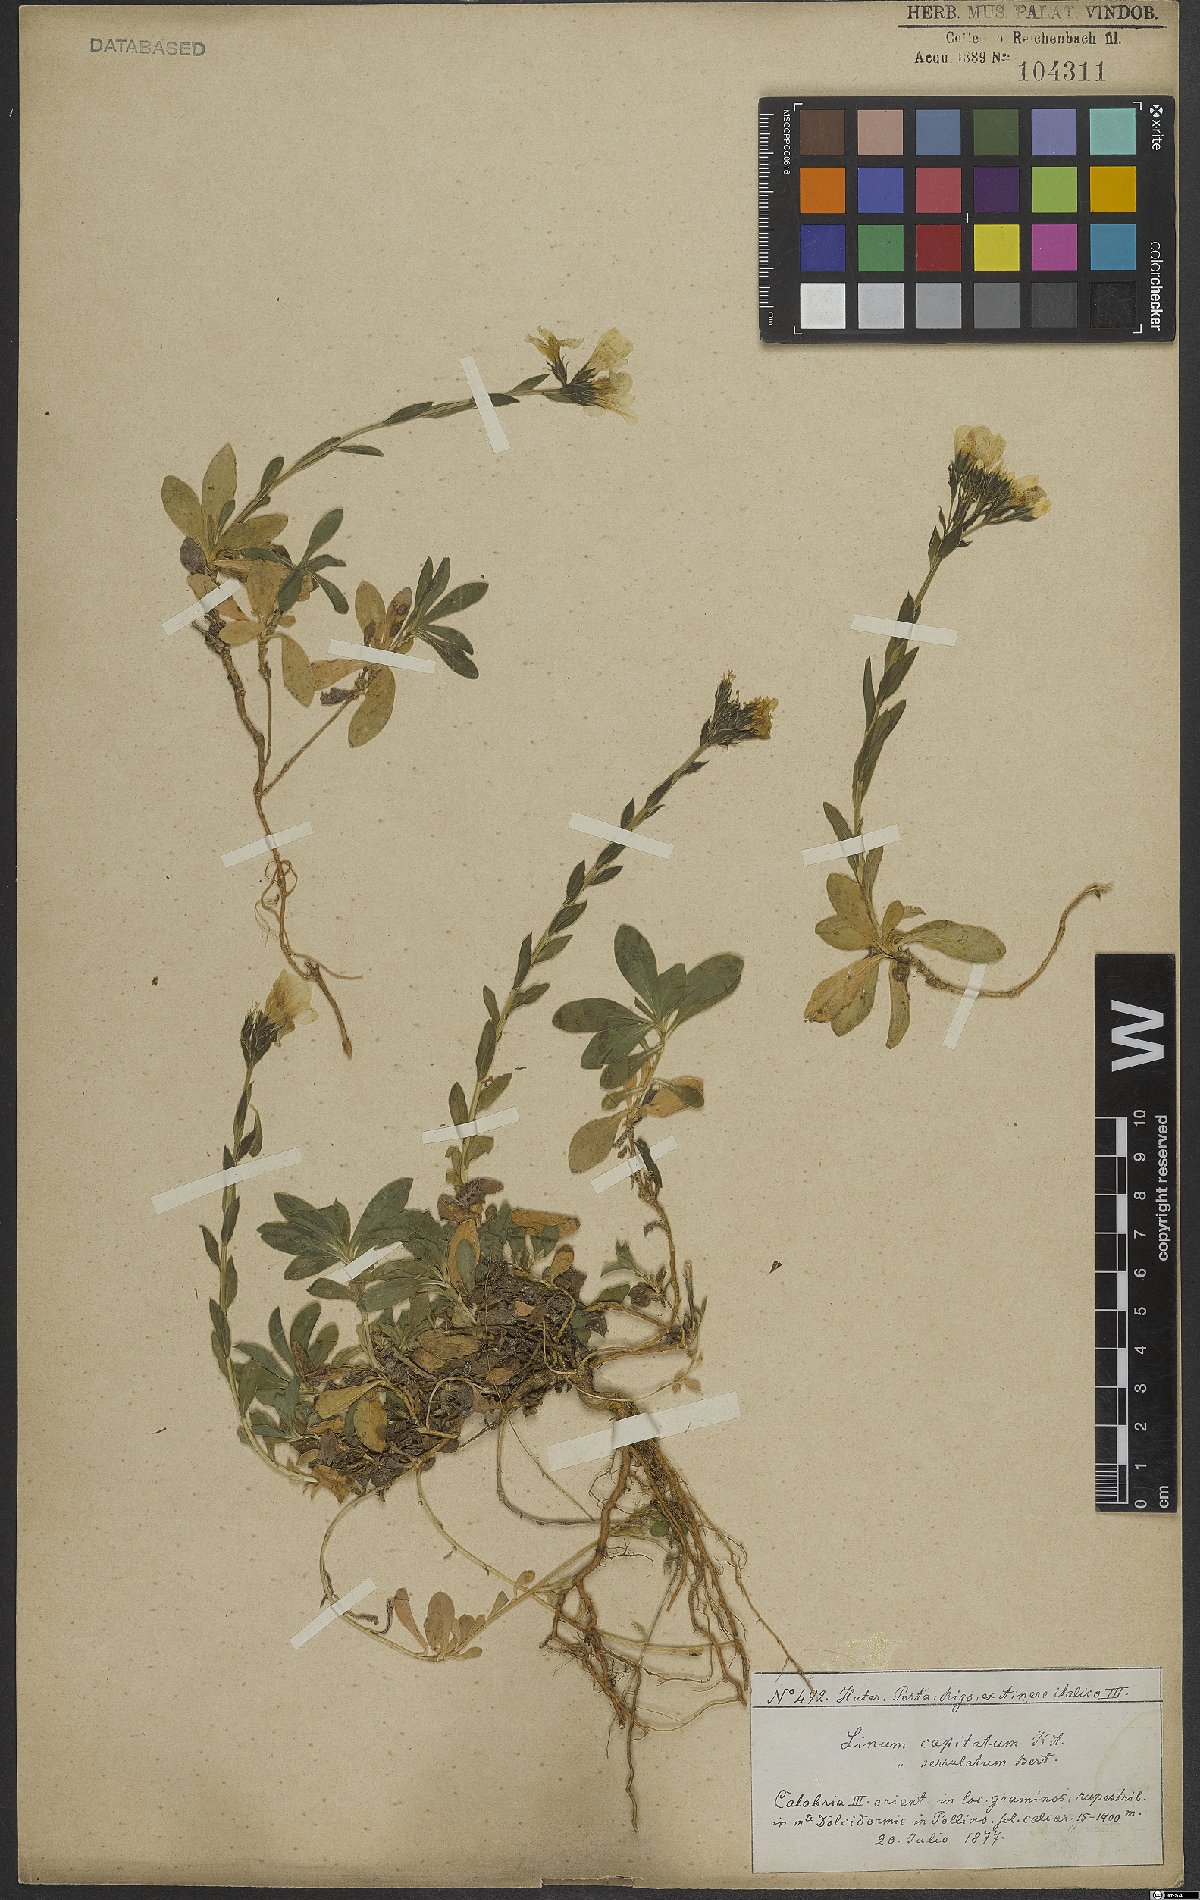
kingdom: Plantae
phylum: Tracheophyta
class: Magnoliopsida
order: Malpighiales
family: Linaceae
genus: Linum
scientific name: Linum capitatum
